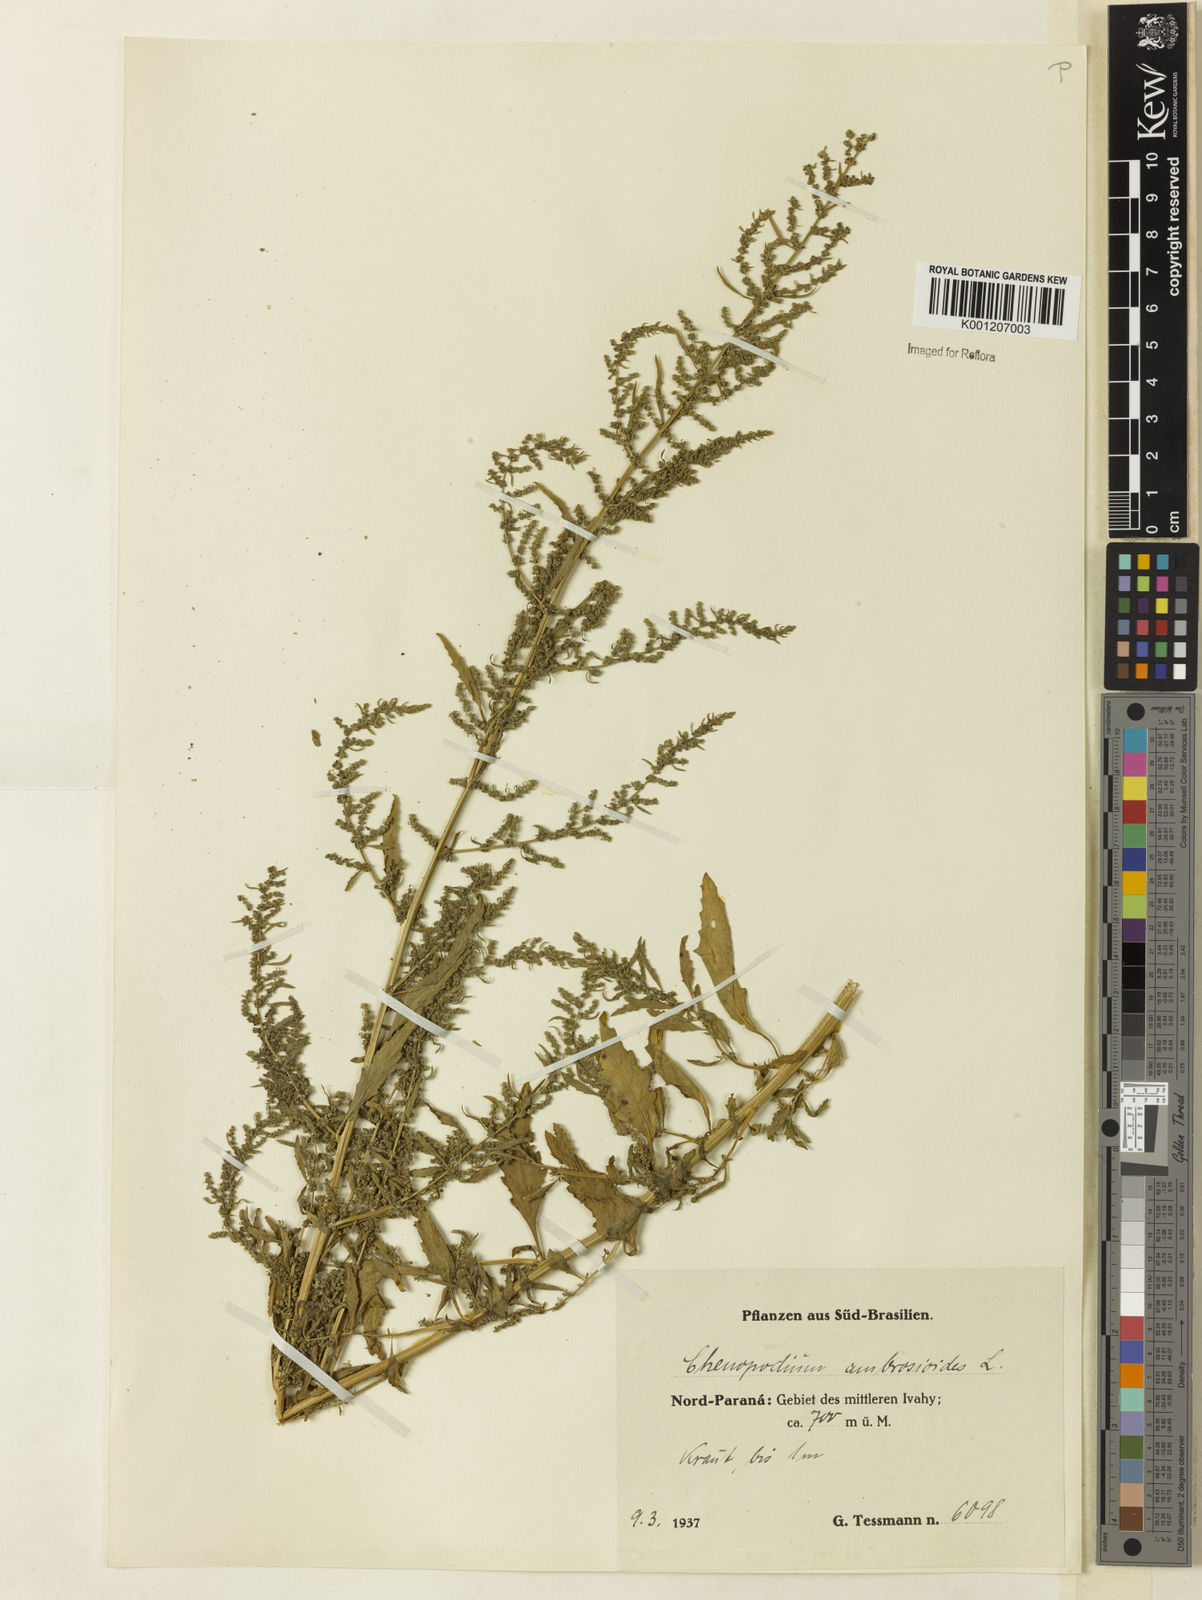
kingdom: Plantae
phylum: Tracheophyta
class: Magnoliopsida
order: Caryophyllales
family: Amaranthaceae
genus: Dysphania
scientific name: Dysphania ambrosioides
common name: Wormseed
